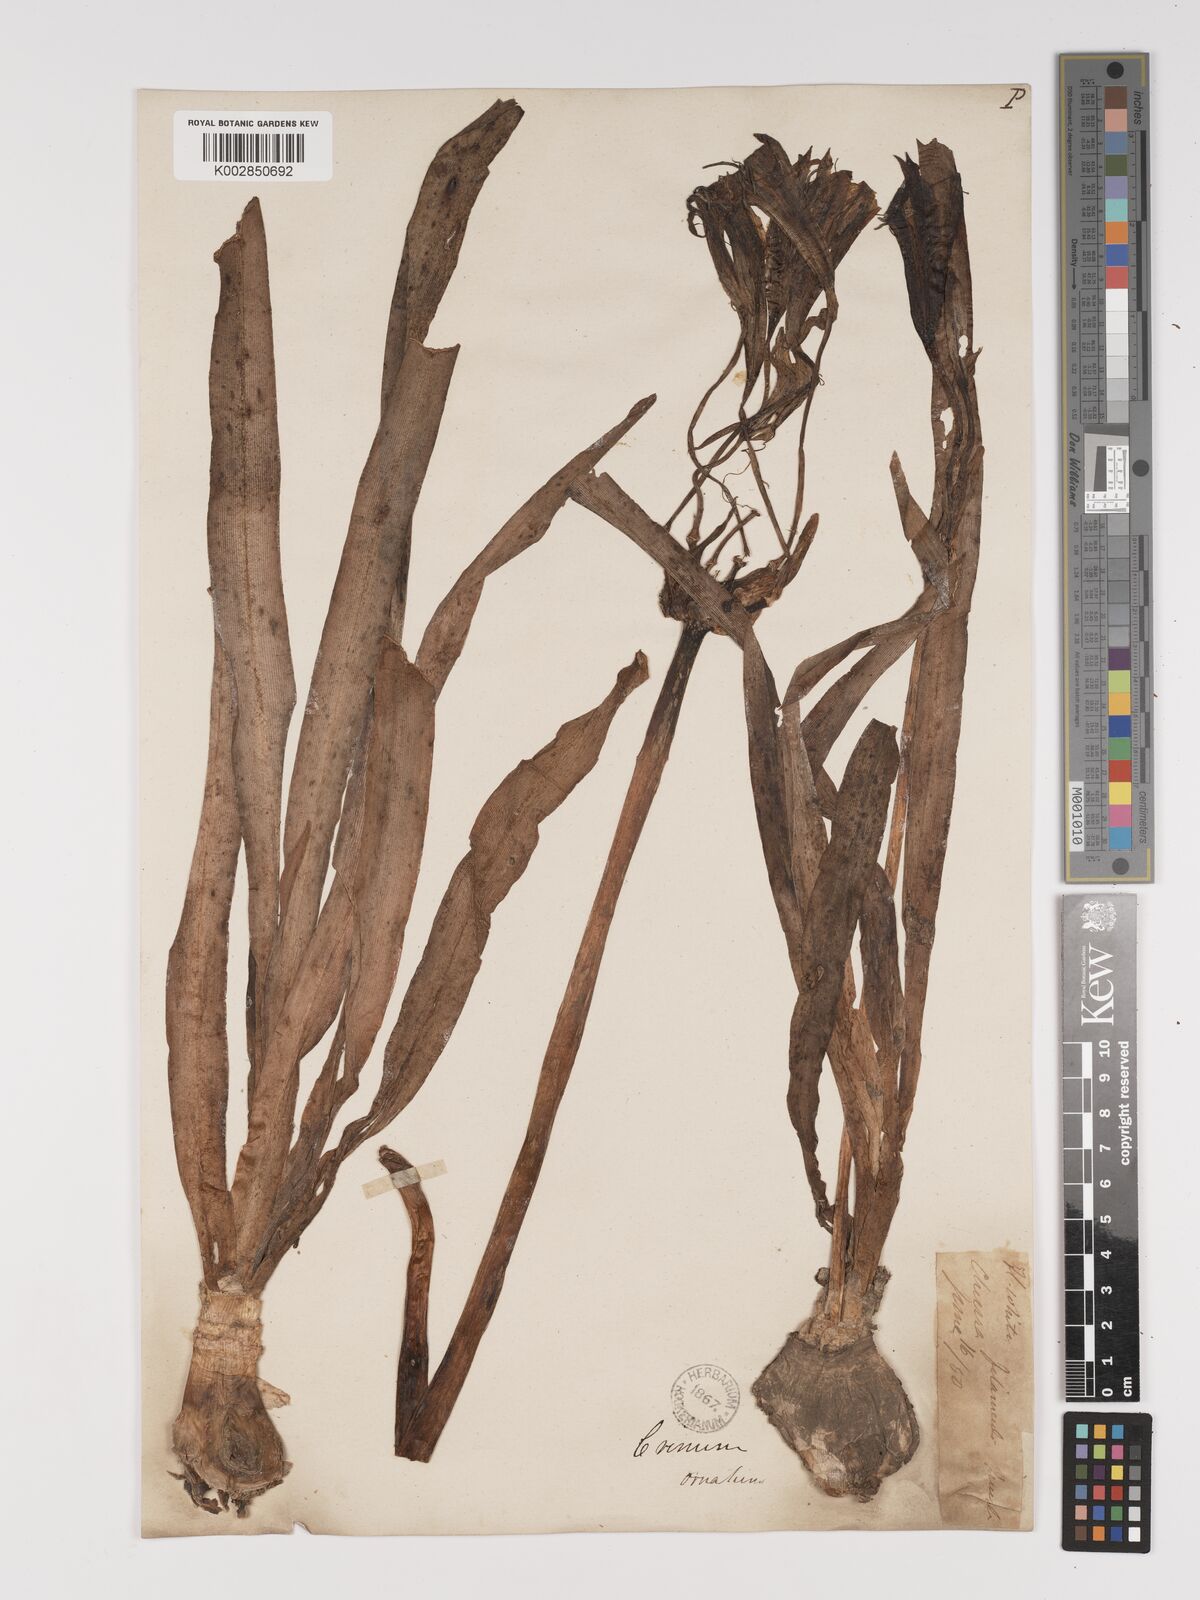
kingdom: Plantae
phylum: Tracheophyta
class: Liliopsida
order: Asparagales
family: Amaryllidaceae
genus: Crinum
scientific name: Crinum zeylanicum
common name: Ceylon swamplily
